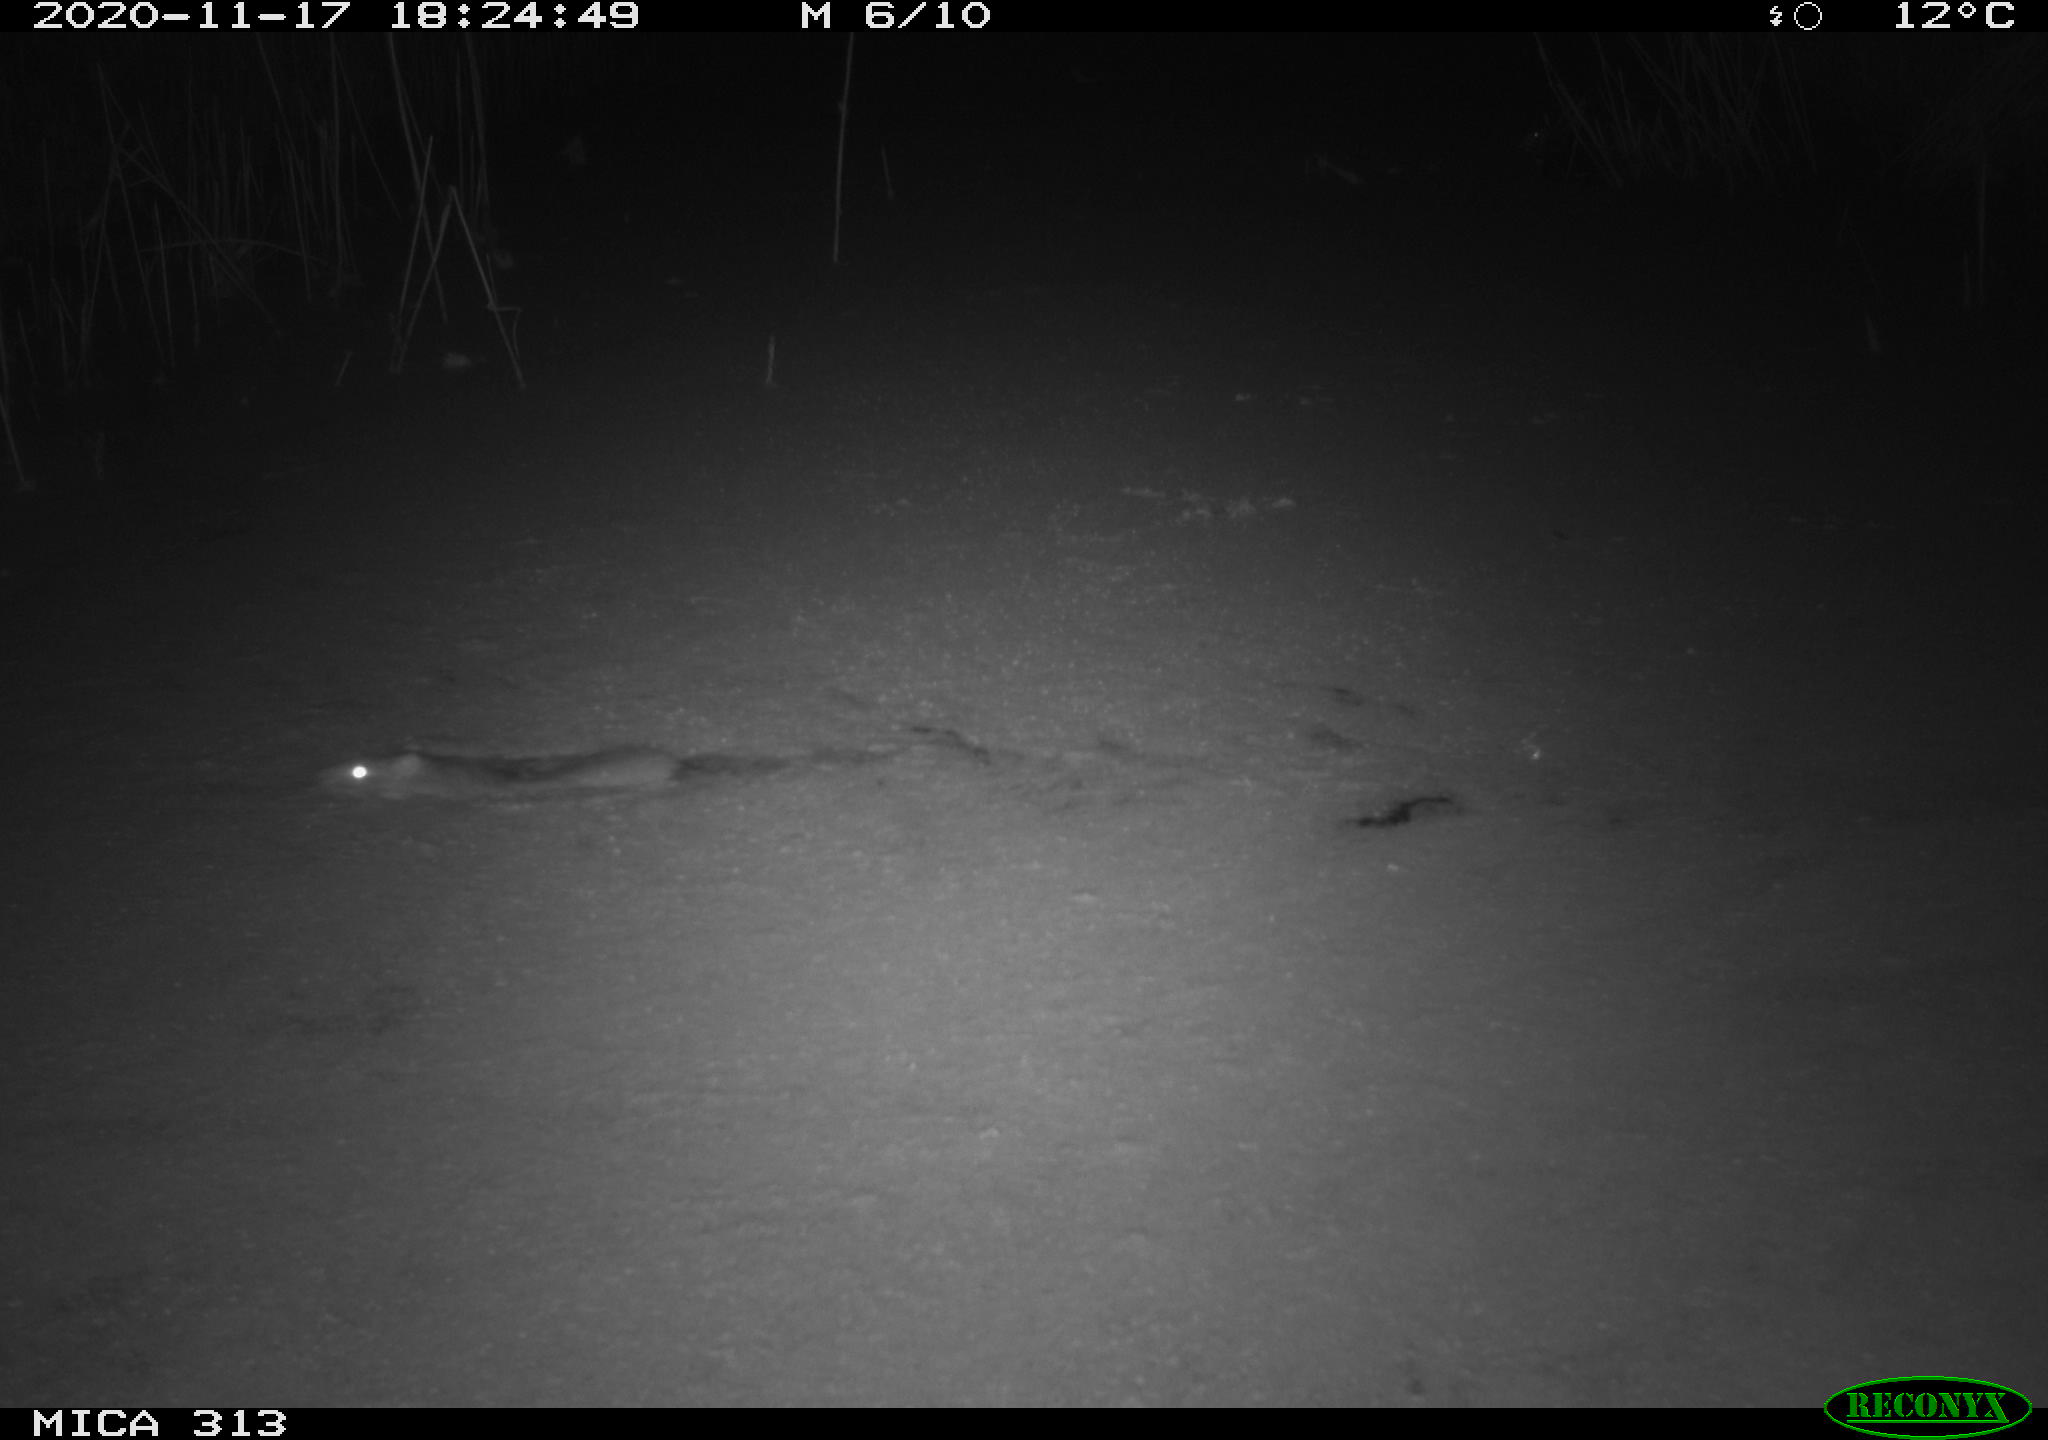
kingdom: Animalia
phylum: Chordata
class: Mammalia
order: Rodentia
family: Muridae
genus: Rattus
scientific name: Rattus norvegicus
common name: Brown rat
